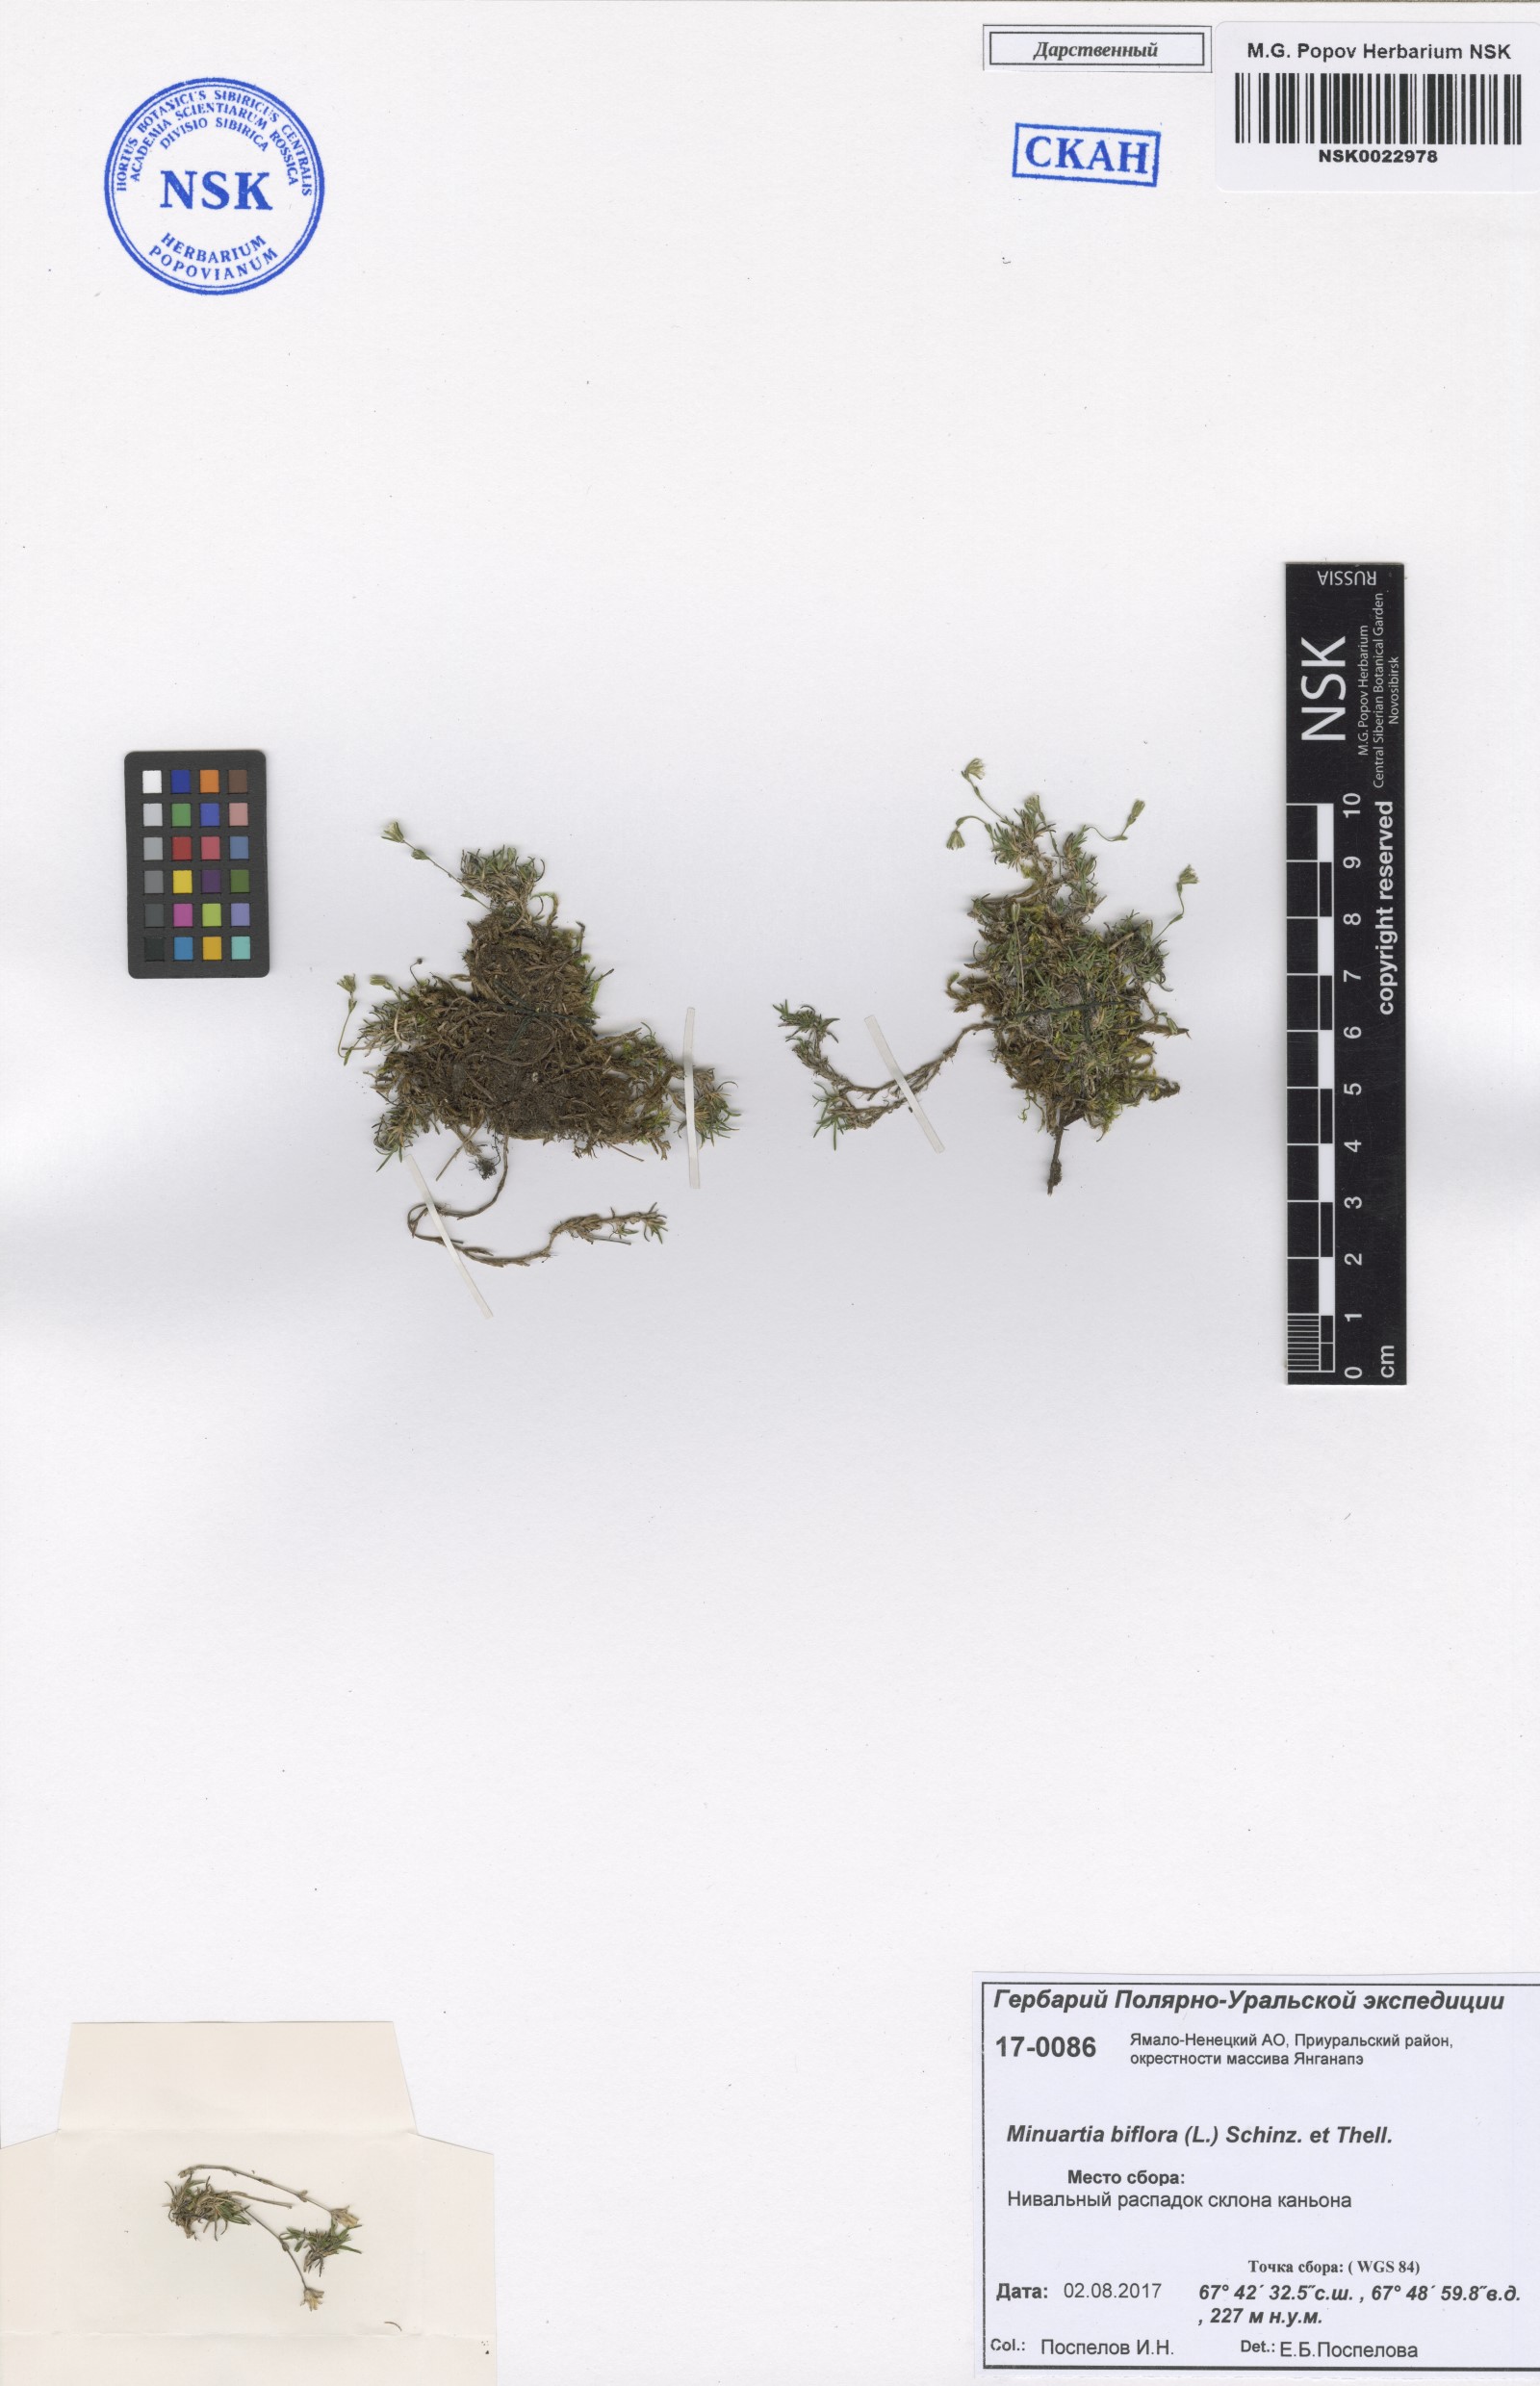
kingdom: Plantae
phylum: Tracheophyta
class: Magnoliopsida
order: Caryophyllales
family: Caryophyllaceae
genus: Cherleria
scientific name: Cherleria biflora
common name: Mountain sandwort
